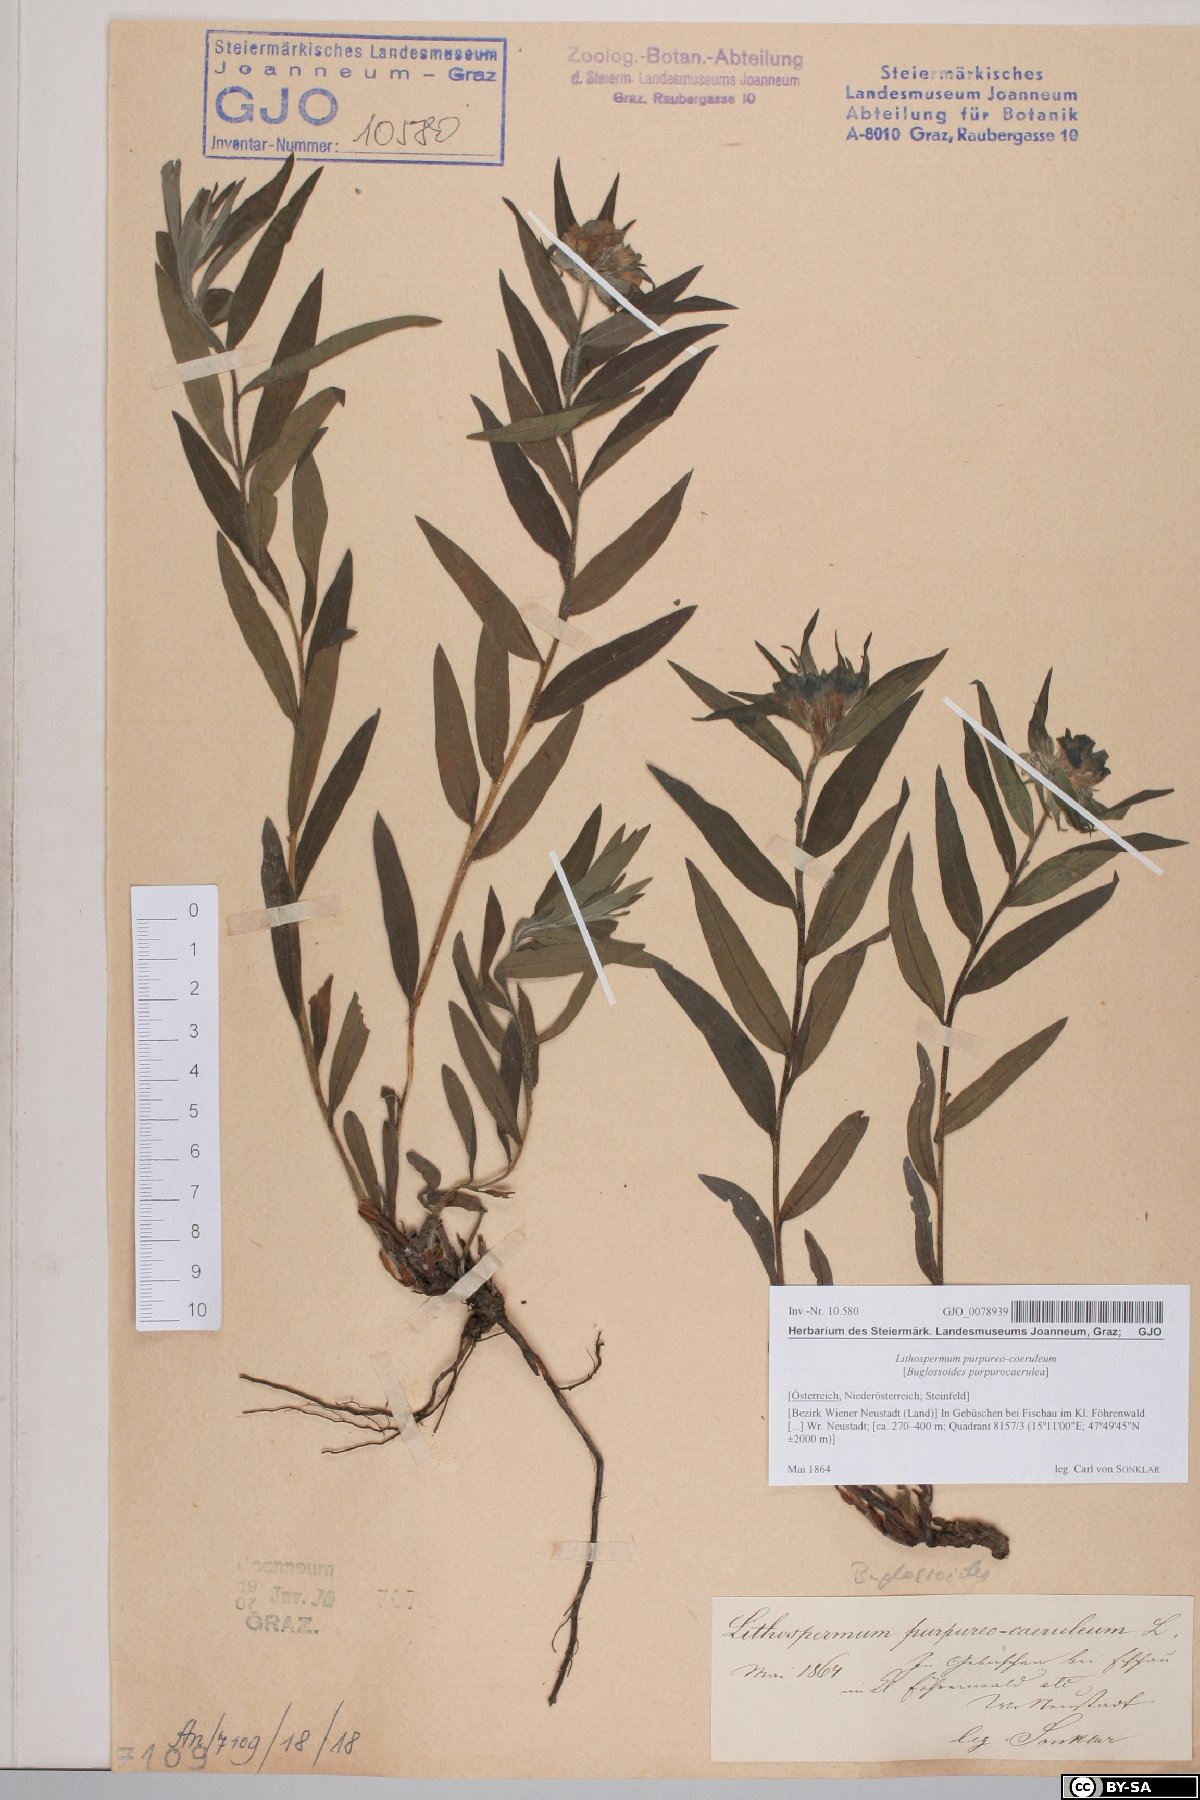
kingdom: Plantae
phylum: Tracheophyta
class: Magnoliopsida
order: Boraginales
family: Boraginaceae
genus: Aegonychon
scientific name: Aegonychon purpurocaeruleum
